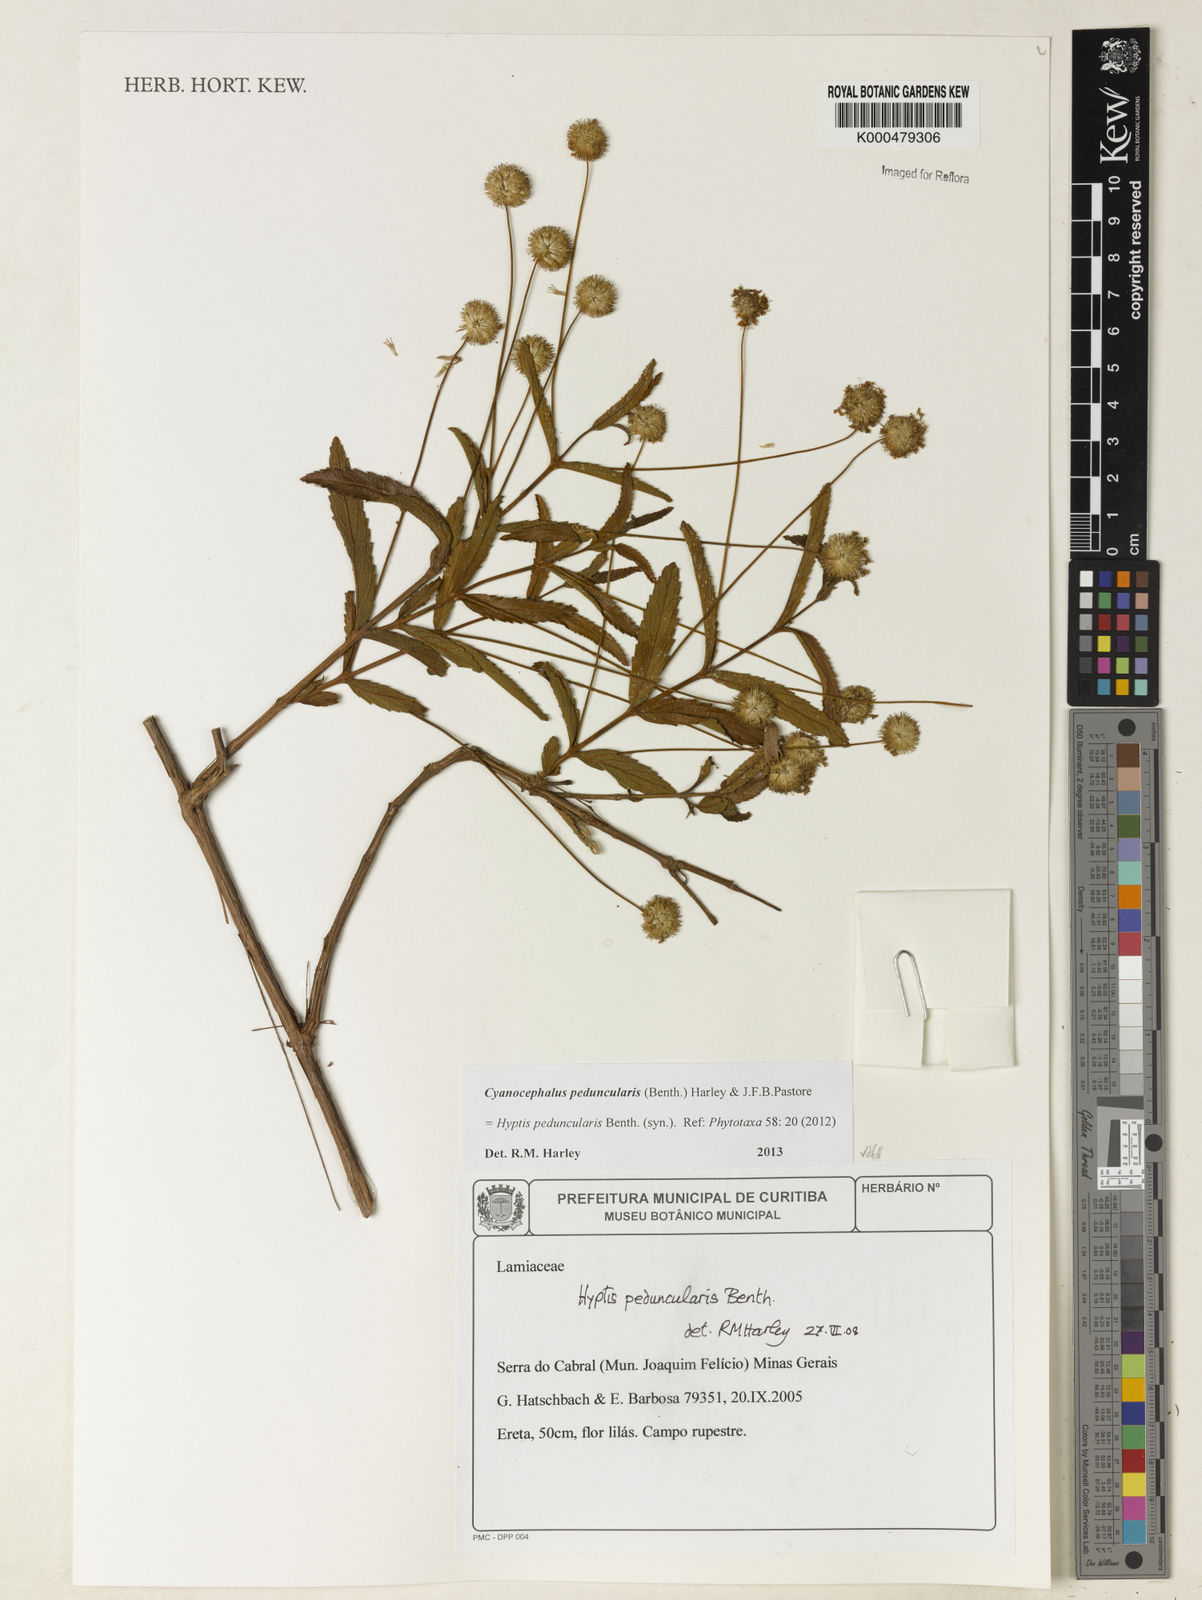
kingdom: Plantae
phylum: Tracheophyta
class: Magnoliopsida
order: Lamiales
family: Lamiaceae
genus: Cyanocephalus
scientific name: Cyanocephalus peduncularis
